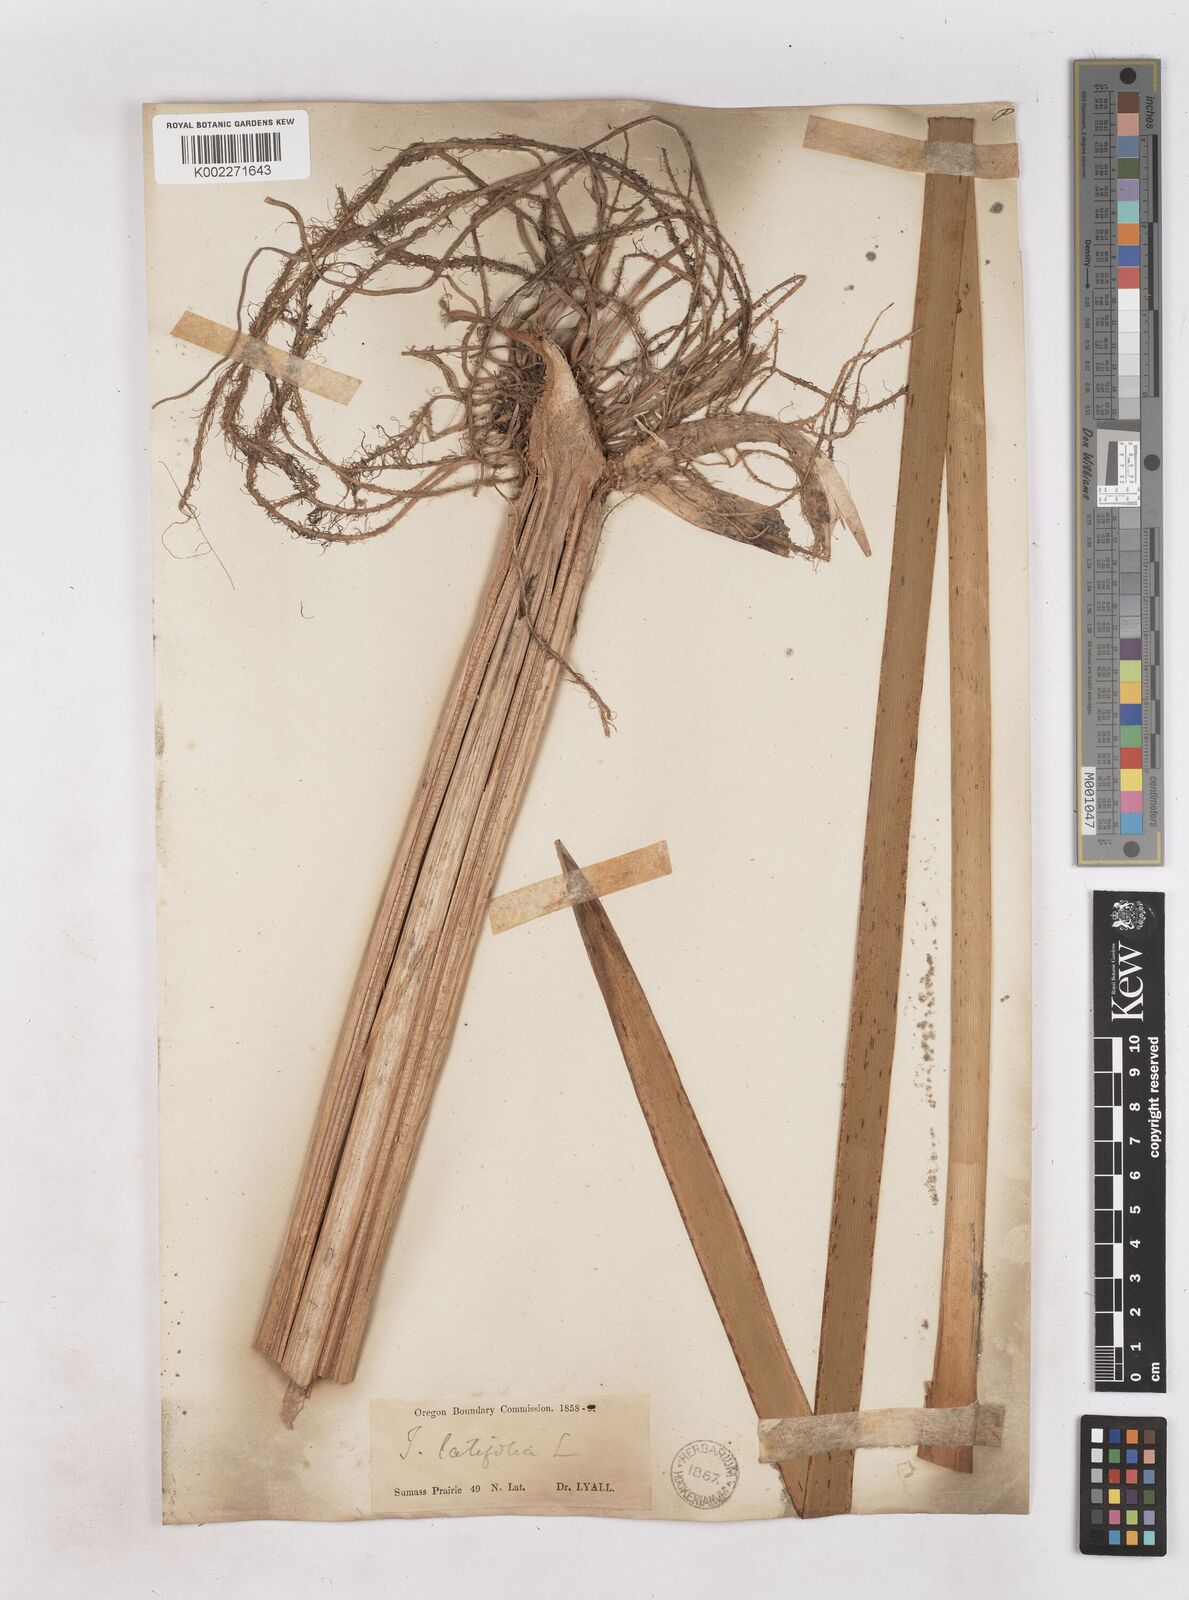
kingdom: Plantae
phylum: Tracheophyta
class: Liliopsida
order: Poales
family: Typhaceae
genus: Typha
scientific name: Typha latifolia
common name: Broadleaf cattail
